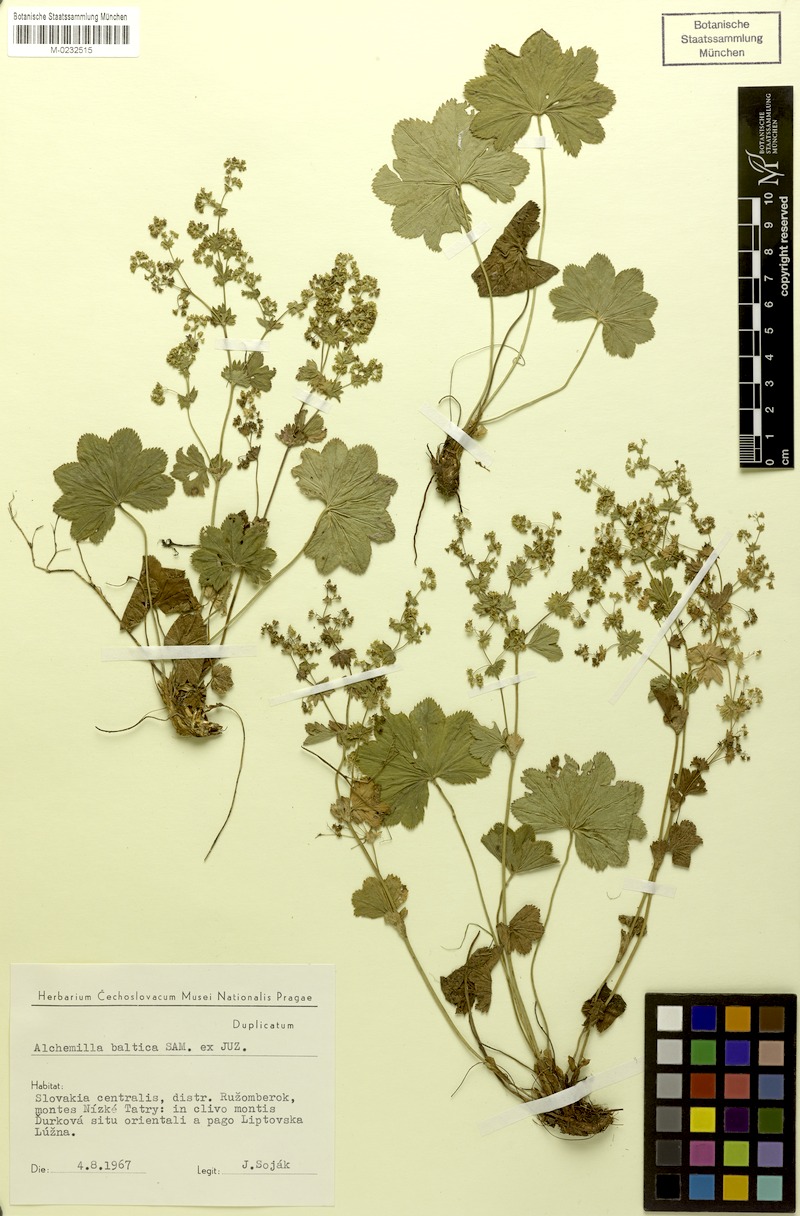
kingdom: Plantae
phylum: Tracheophyta
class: Magnoliopsida
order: Rosales
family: Rosaceae
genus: Alchemilla
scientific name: Alchemilla baltica
